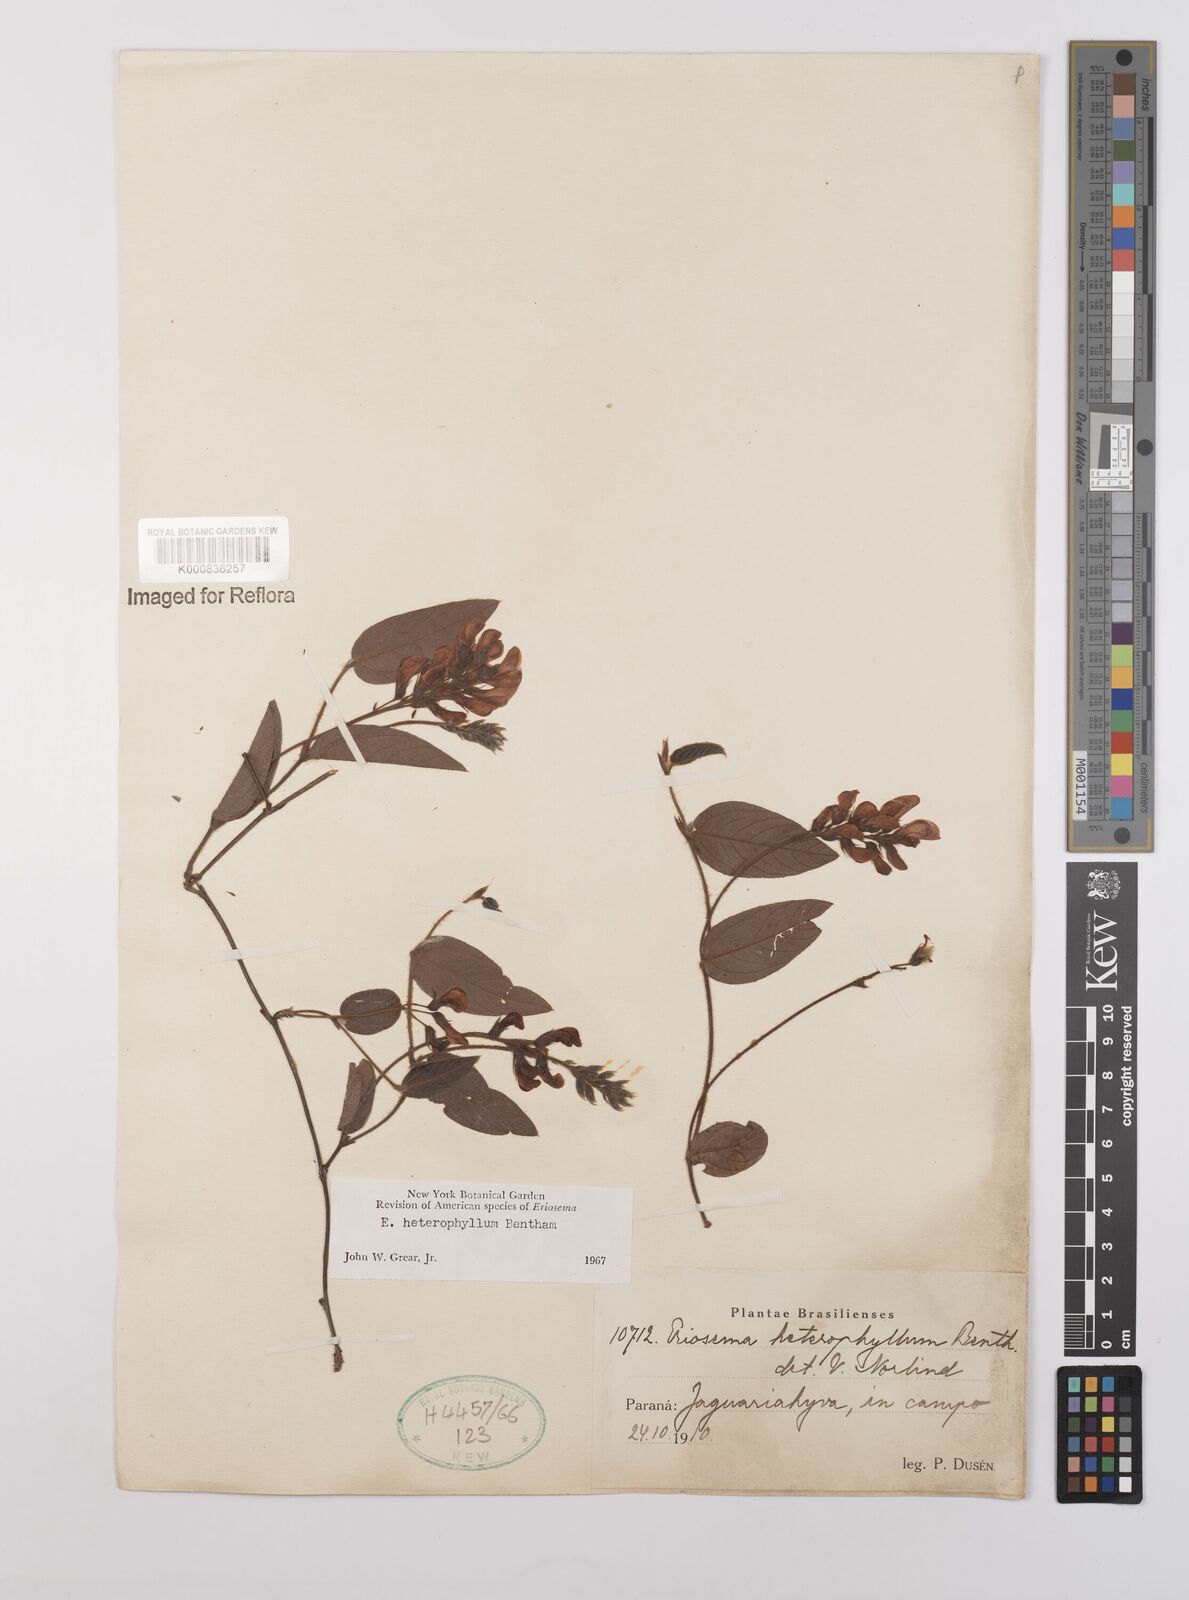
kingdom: Plantae
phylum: Tracheophyta
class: Magnoliopsida
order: Fabales
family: Fabaceae
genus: Eriosema
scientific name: Eriosema heterophyllum
